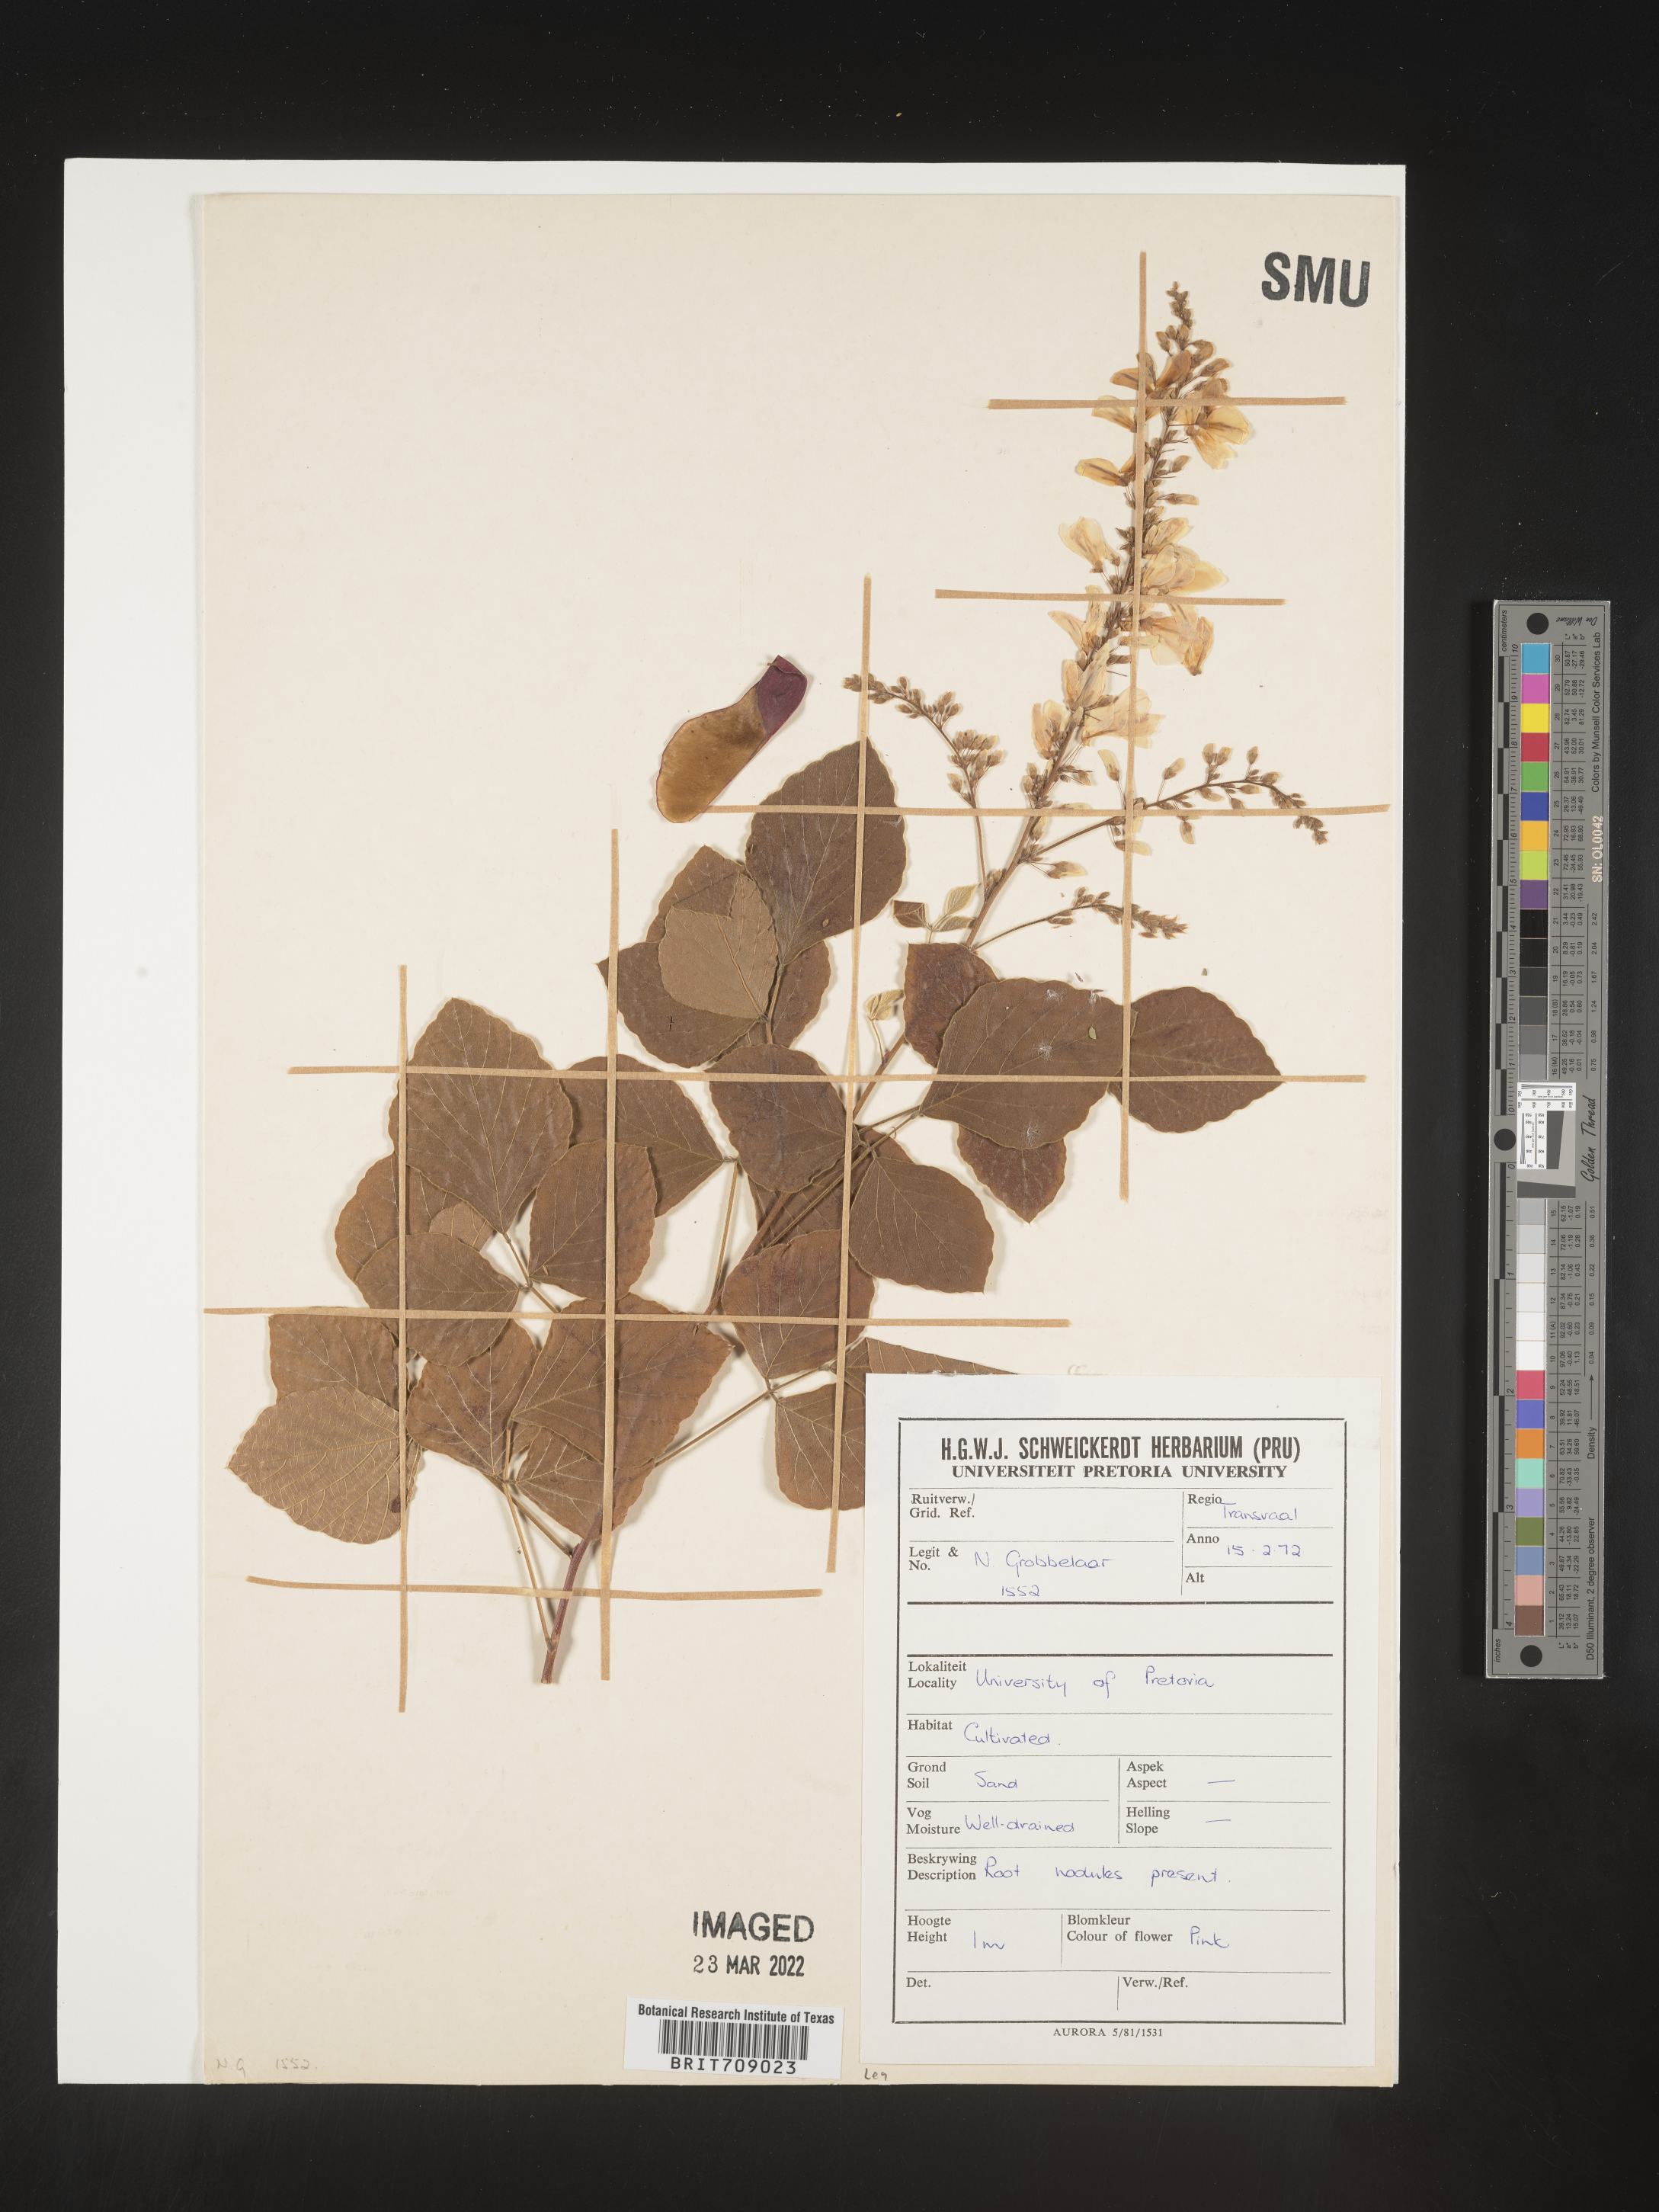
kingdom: Plantae
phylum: Tracheophyta
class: Magnoliopsida
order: Fabales
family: Fabaceae
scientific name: Fabaceae
